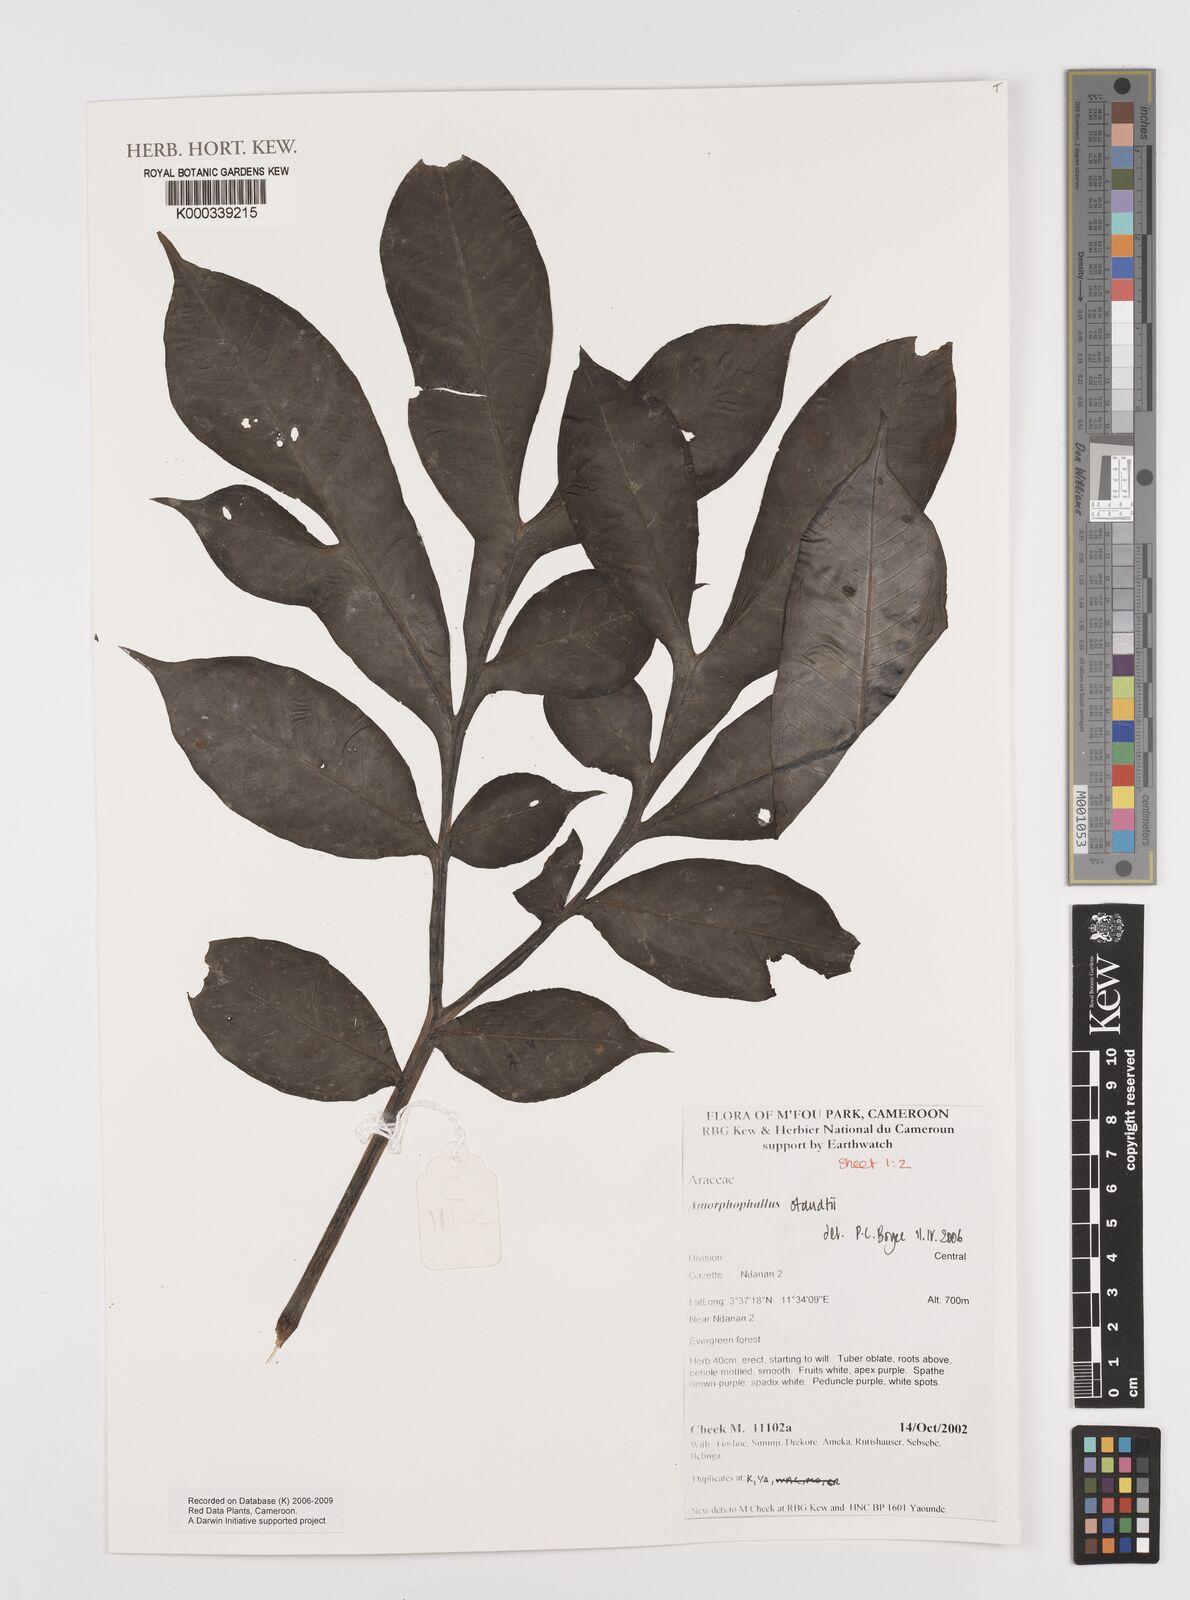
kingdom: Plantae
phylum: Tracheophyta
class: Liliopsida
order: Alismatales
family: Araceae
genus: Amorphophallus
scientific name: Amorphophallus staudtii
